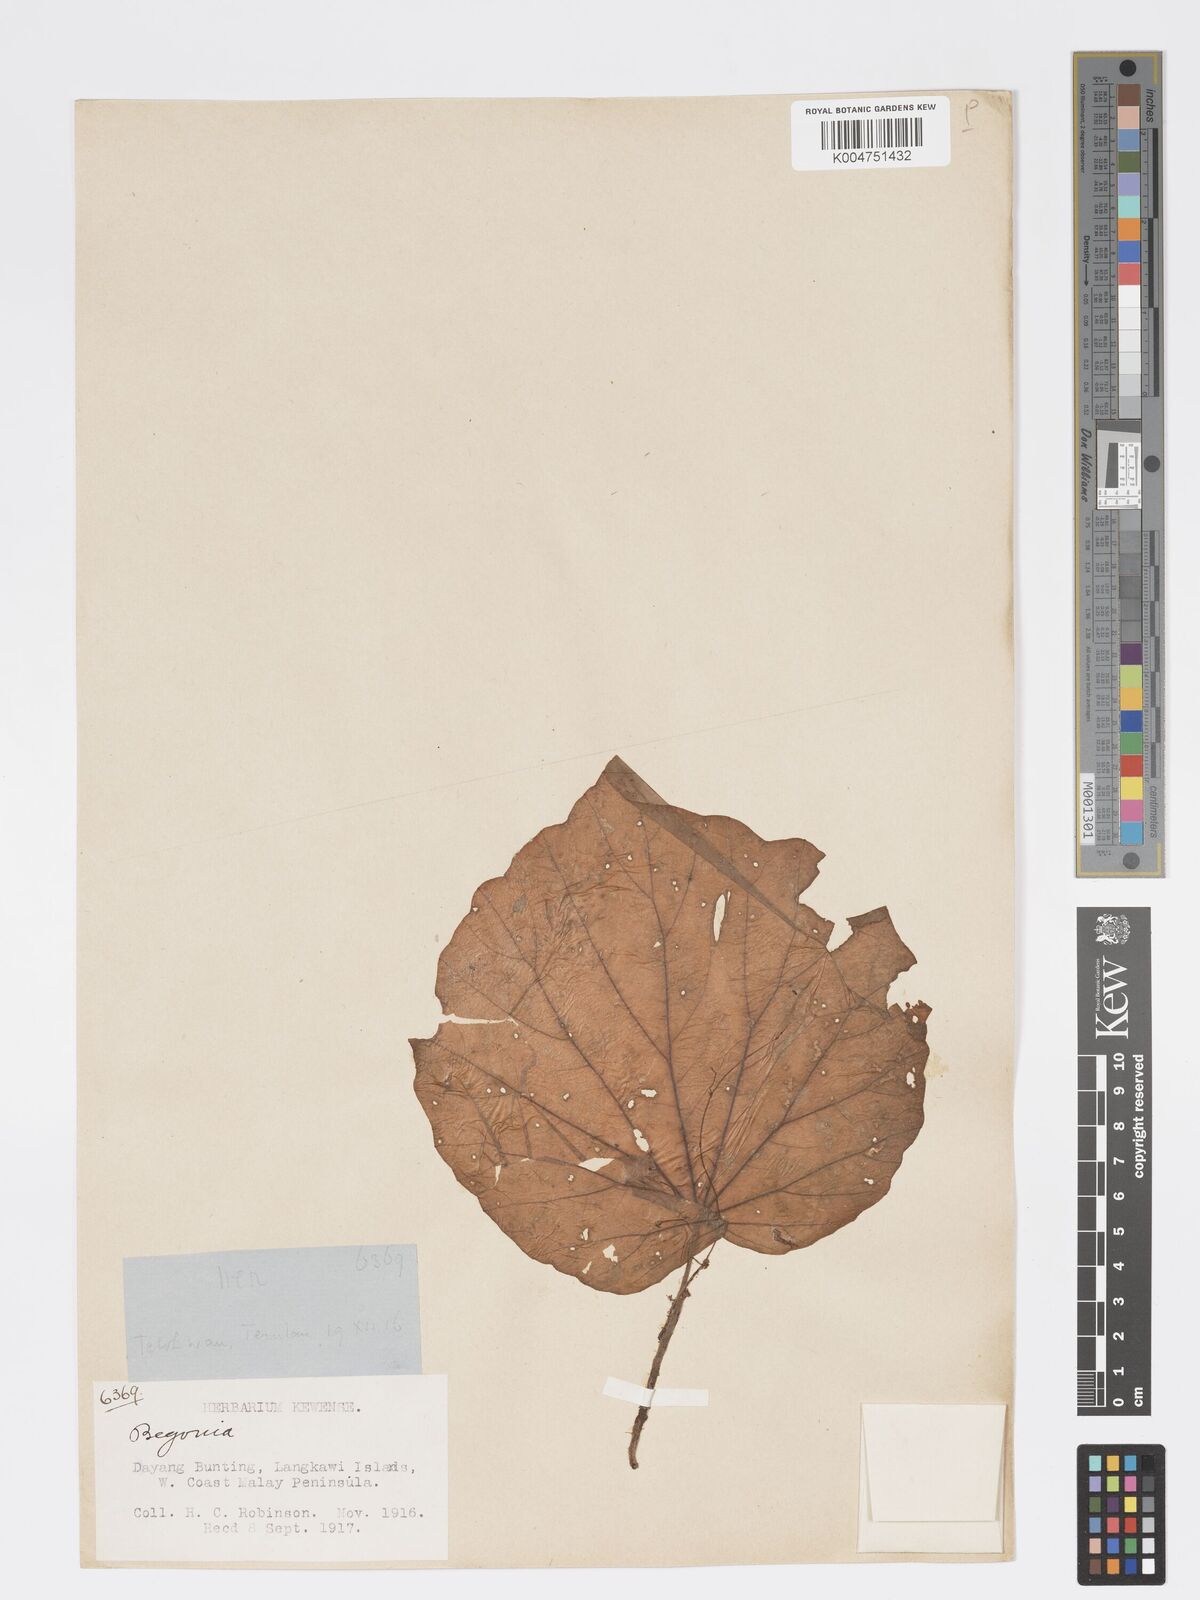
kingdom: Plantae
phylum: Tracheophyta
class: Magnoliopsida
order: Cucurbitales
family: Begoniaceae
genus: Begonia
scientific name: Begonia
